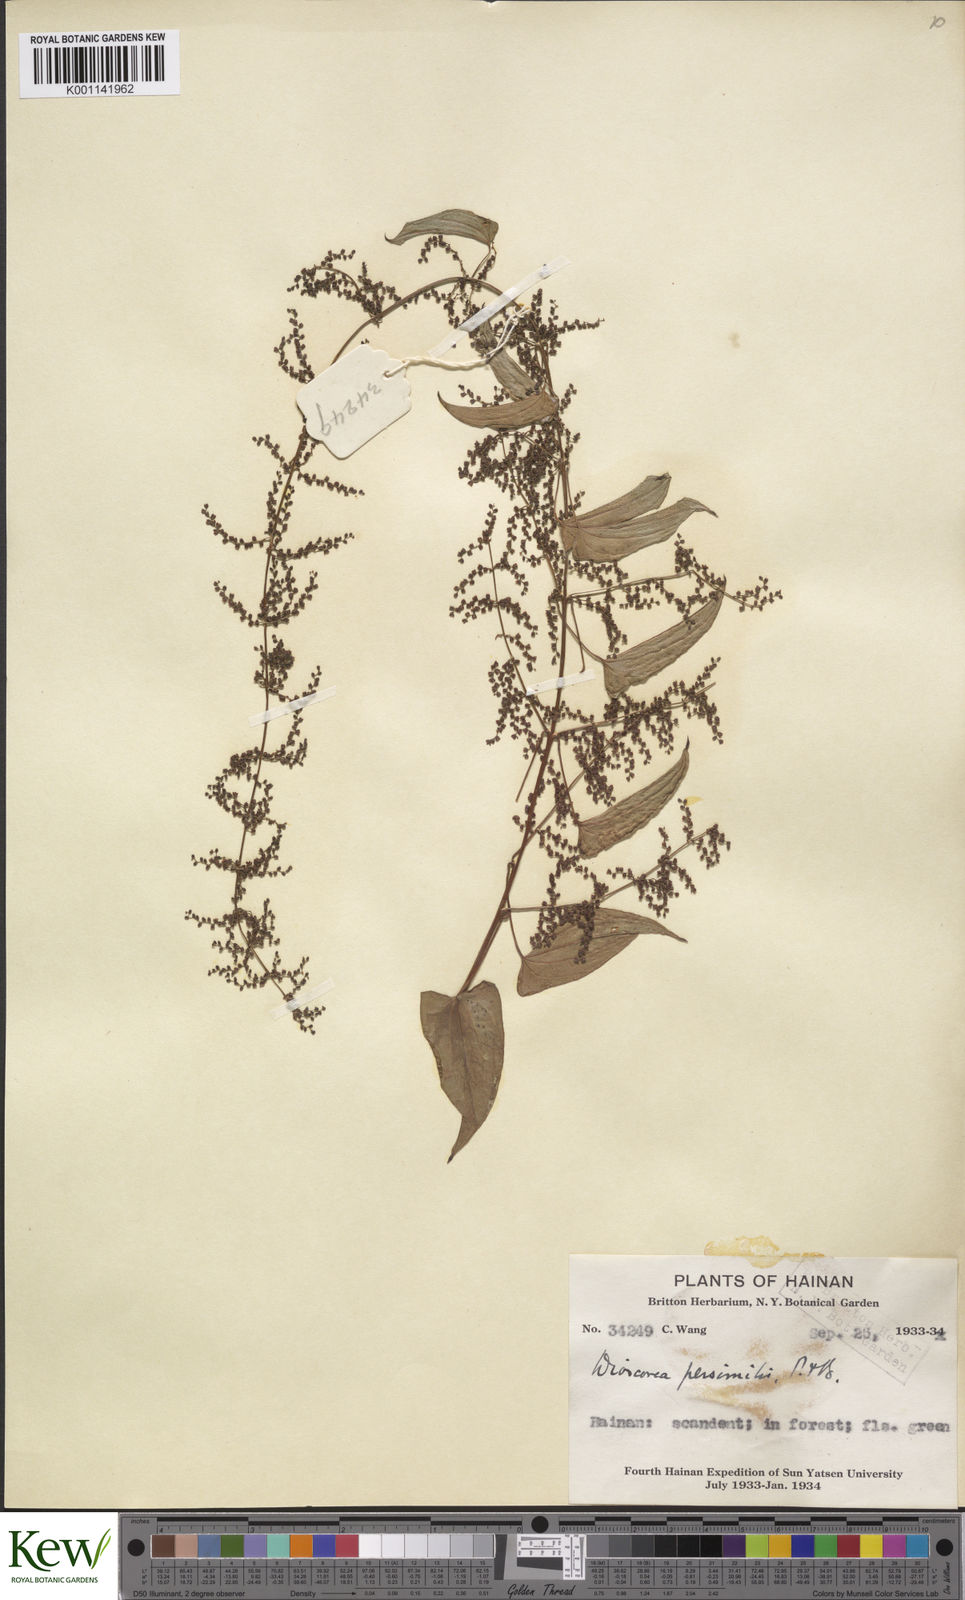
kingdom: Plantae
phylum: Tracheophyta
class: Liliopsida
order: Dioscoreales
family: Dioscoreaceae
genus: Dioscorea
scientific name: Dioscorea hamiltonii
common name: Mountain yam
